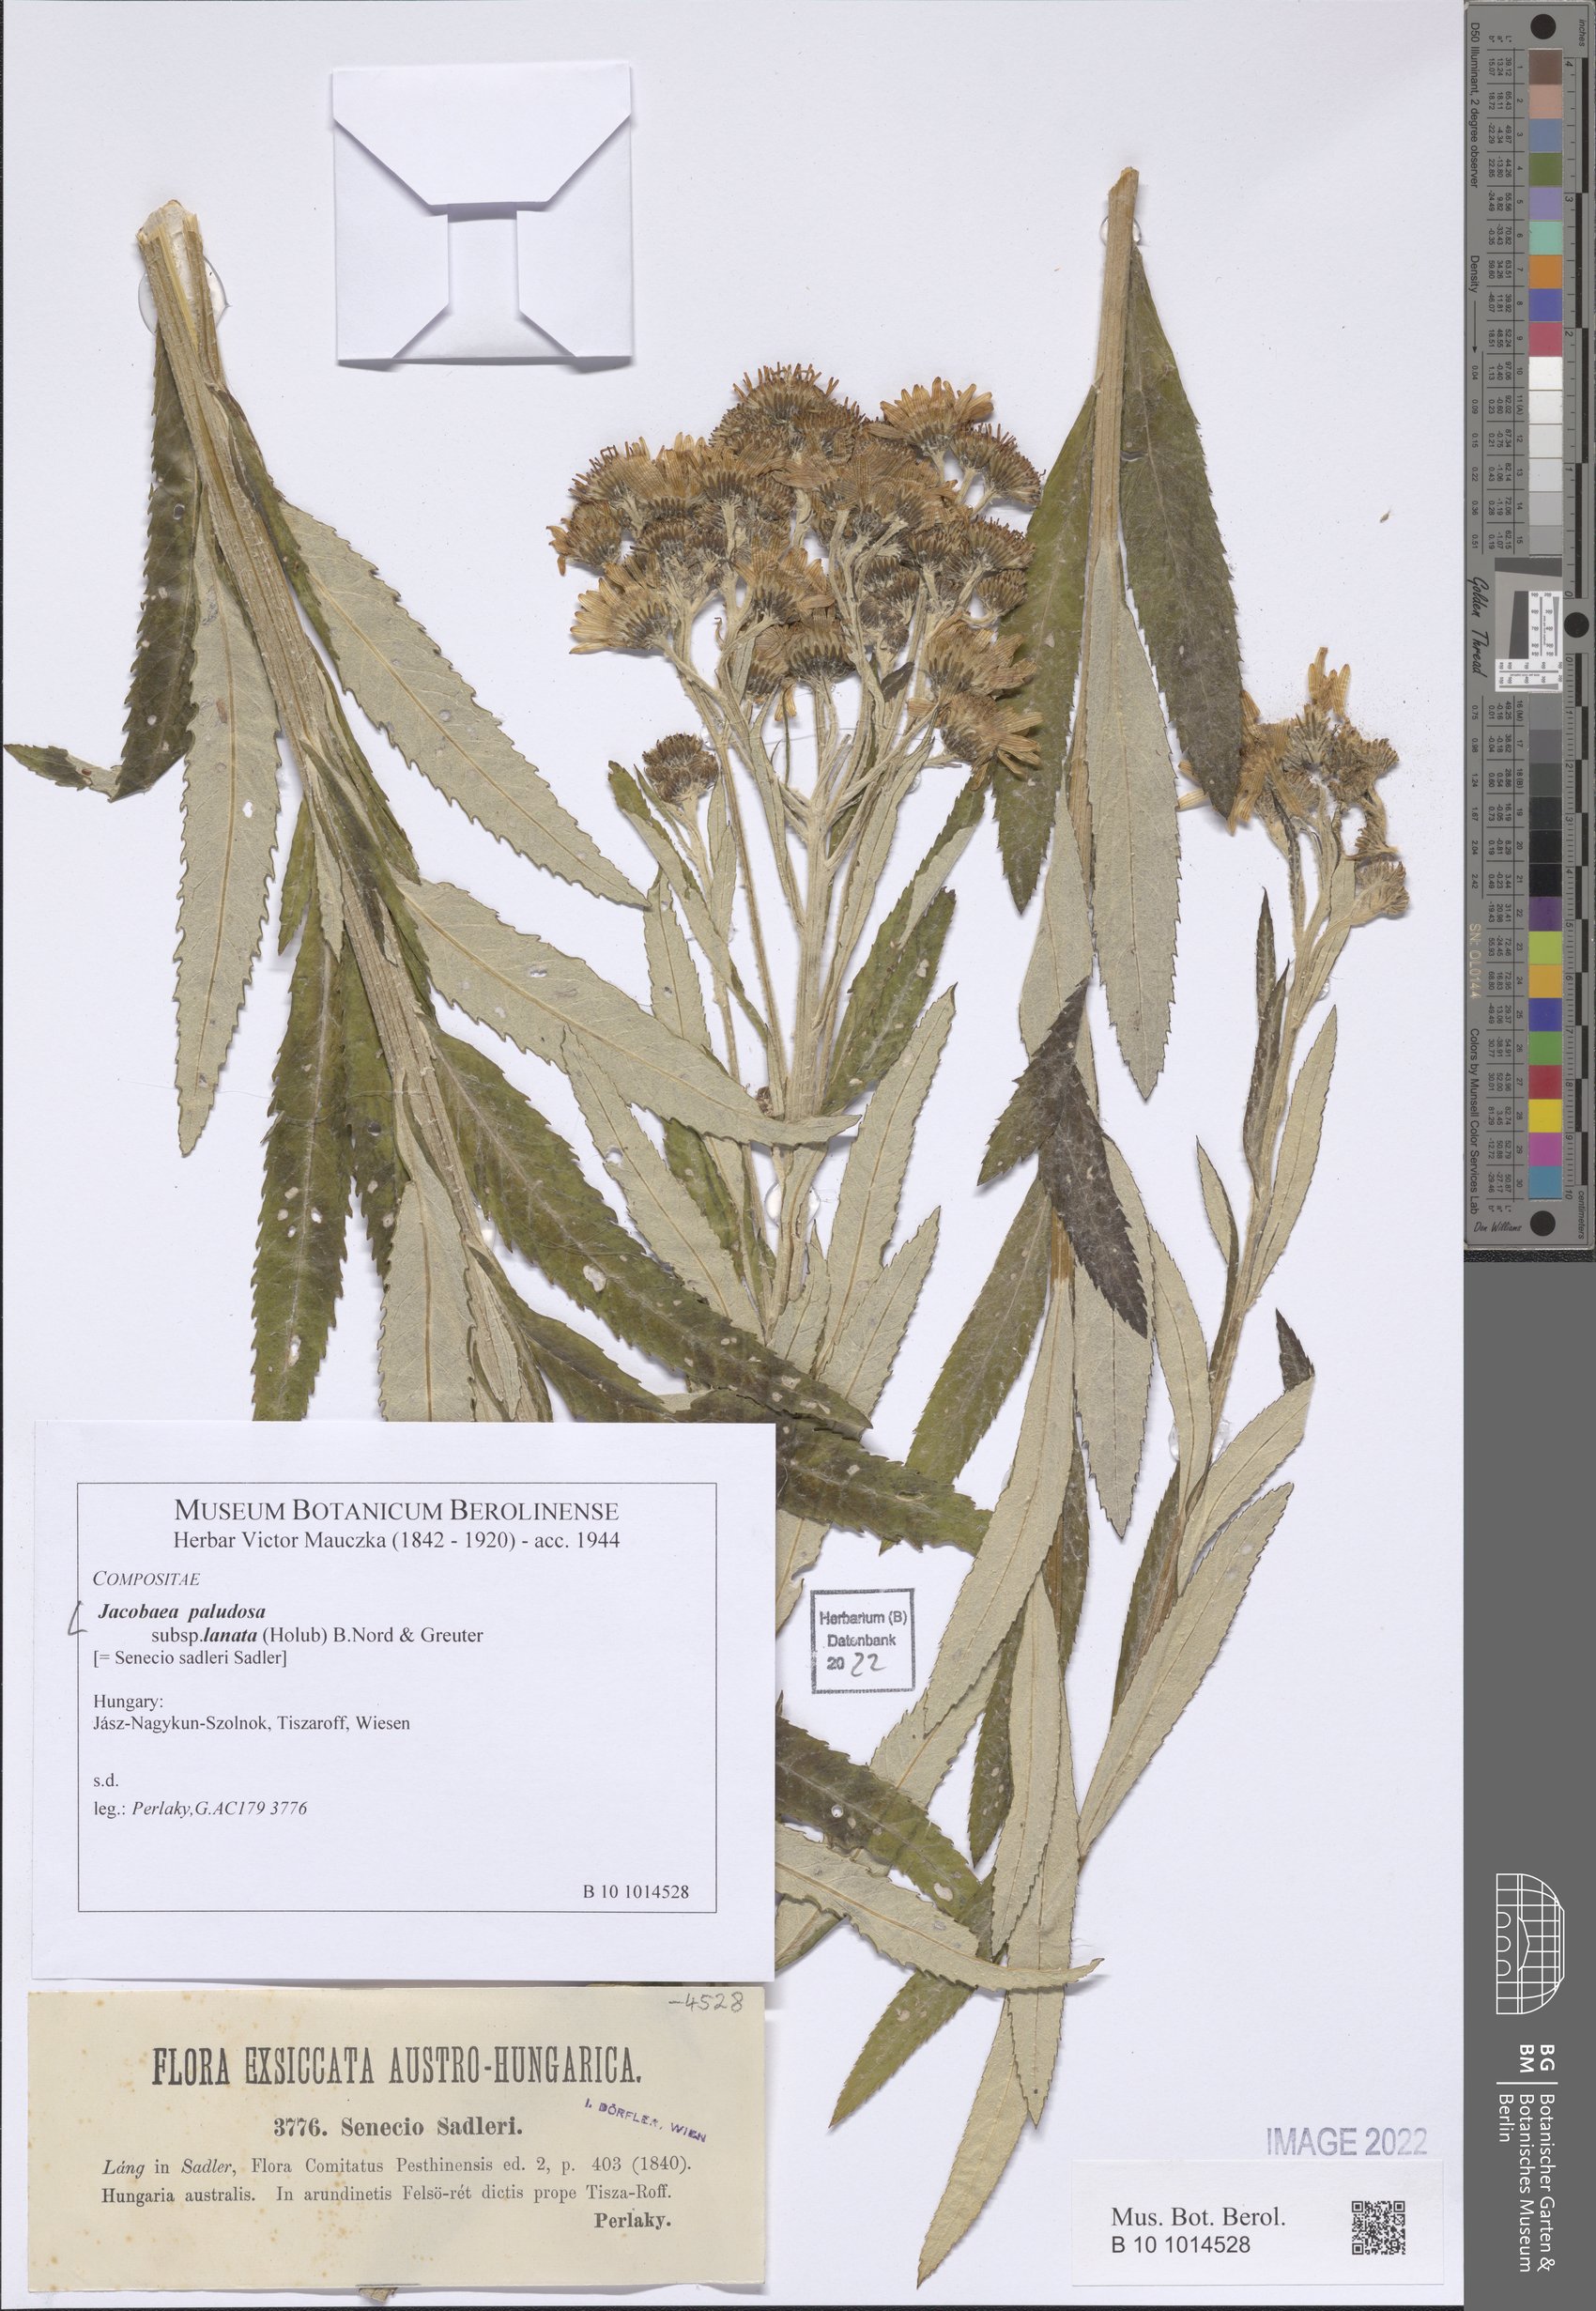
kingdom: Plantae
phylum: Tracheophyta
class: Magnoliopsida
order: Asterales
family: Asteraceae
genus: Jacobaea
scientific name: Jacobaea paludosa
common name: Fen ragwort
